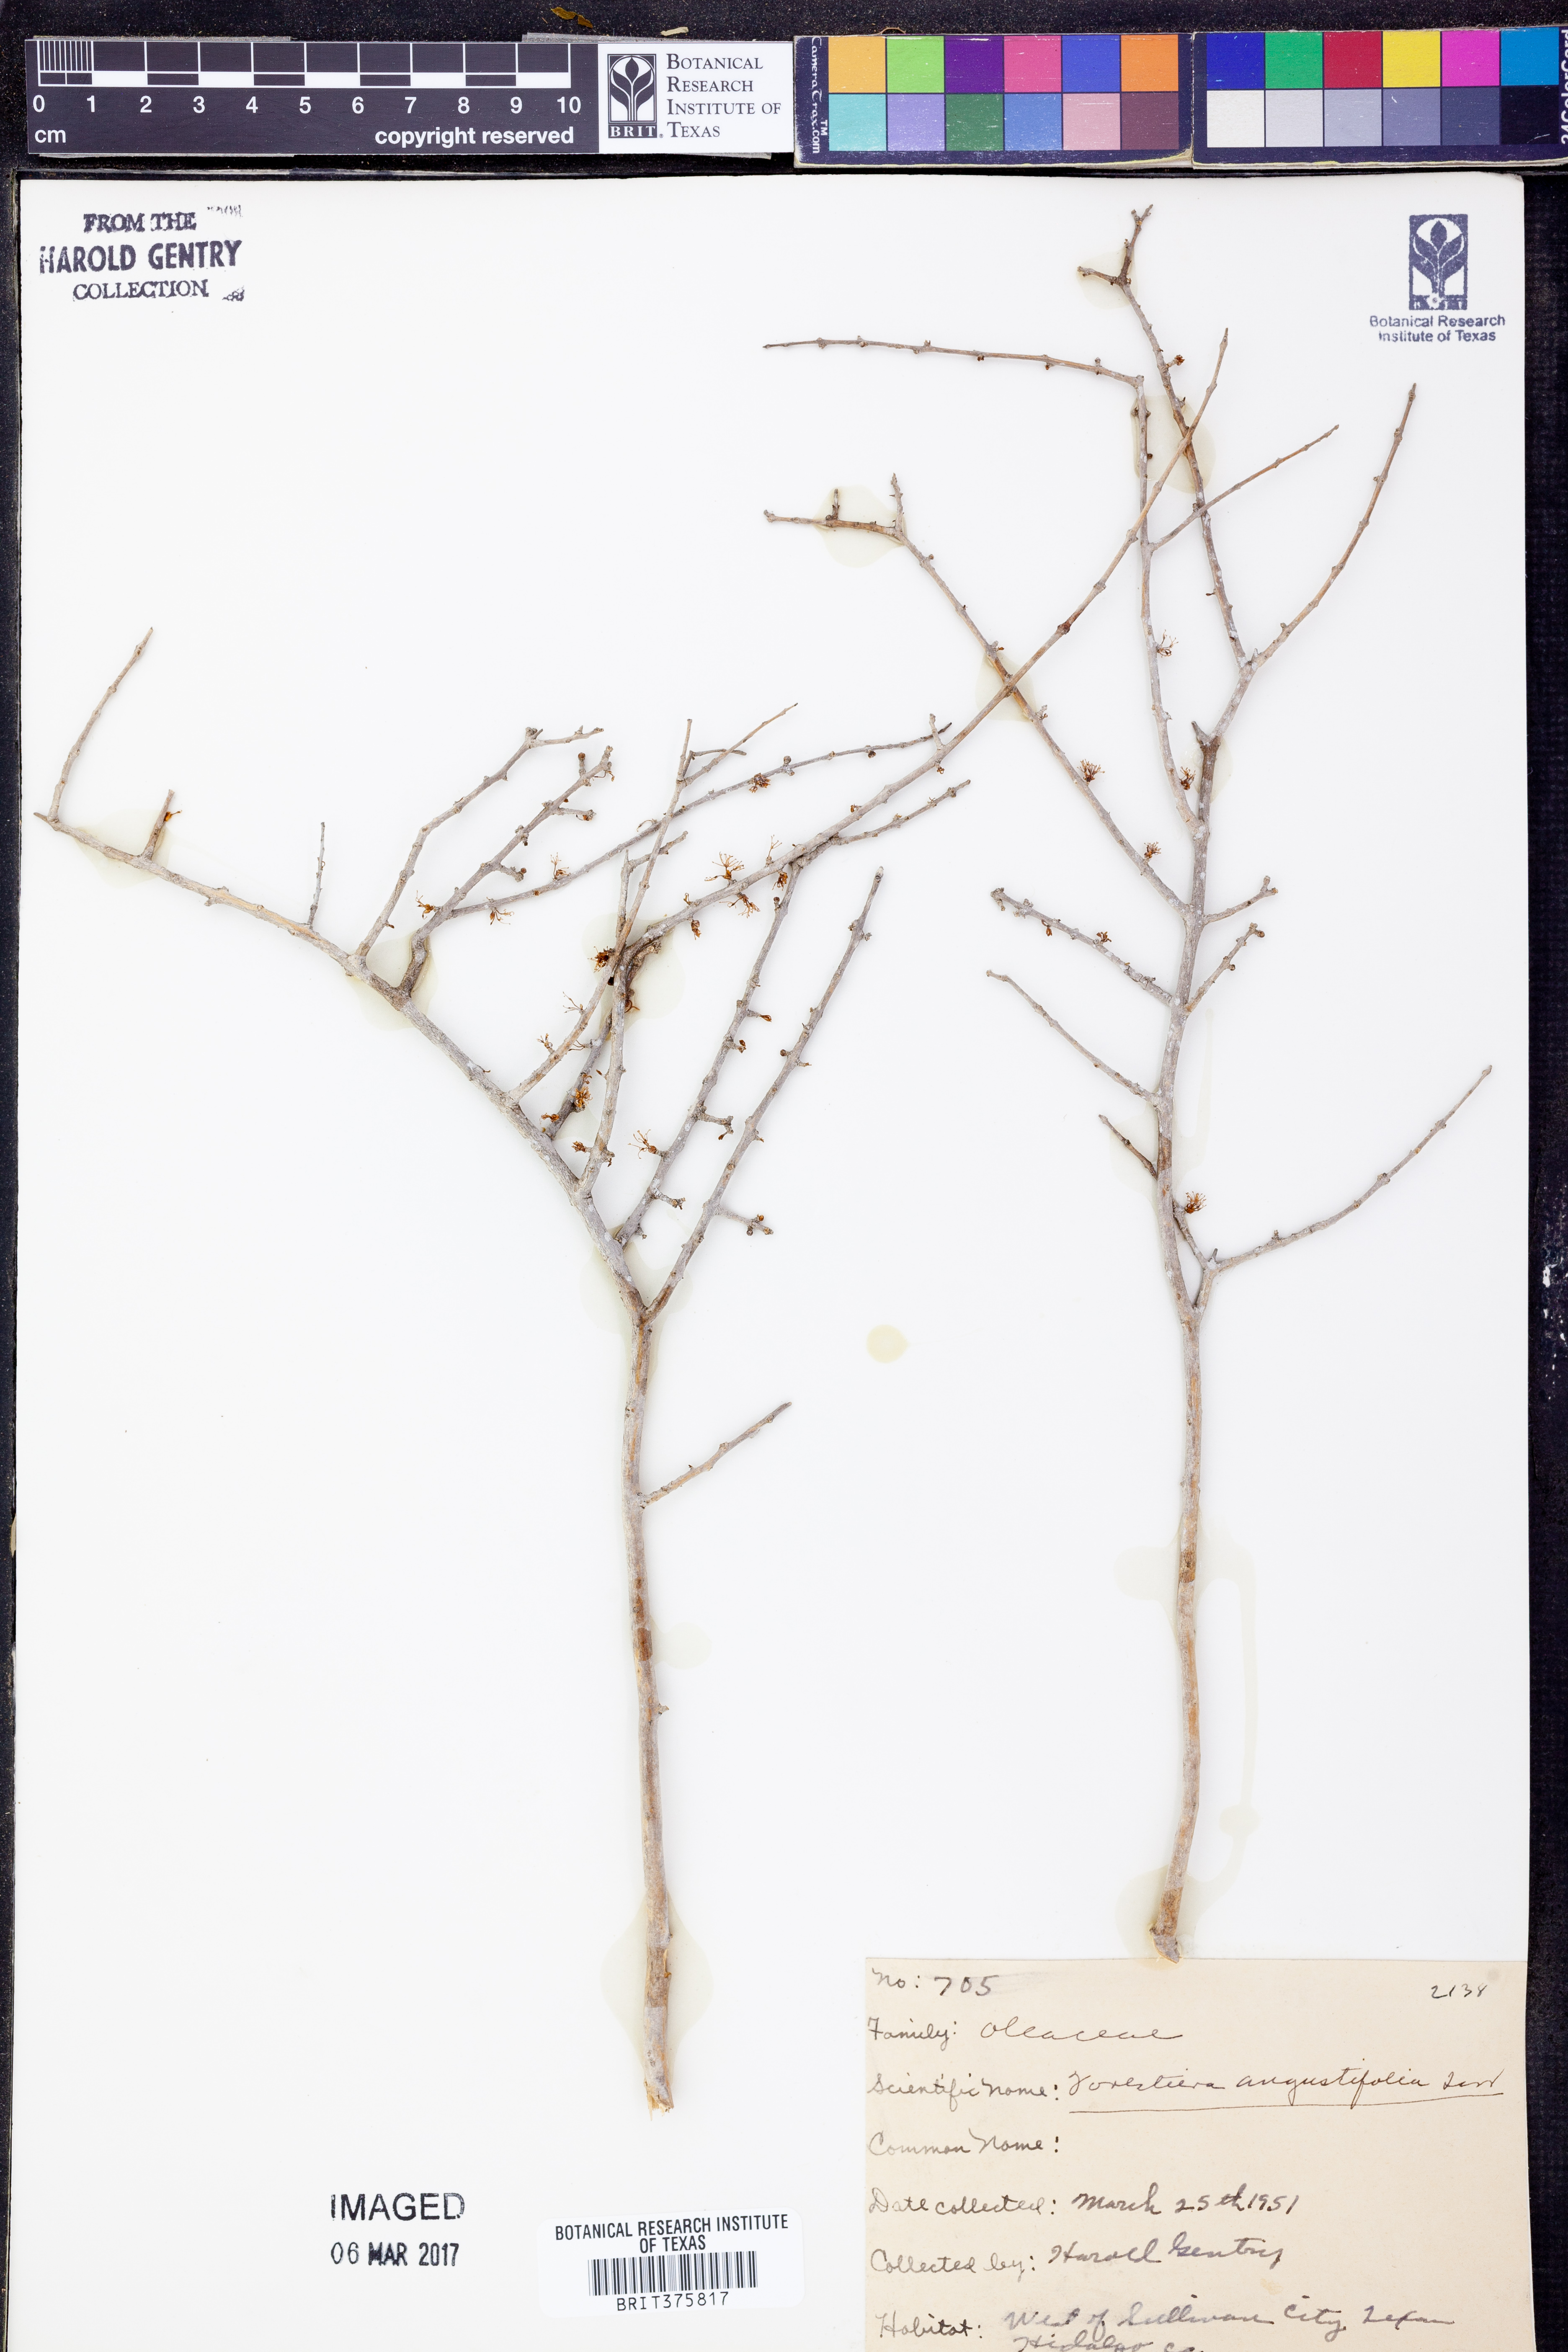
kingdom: Plantae
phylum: Tracheophyta
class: Magnoliopsida
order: Lamiales
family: Oleaceae
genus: Forestiera
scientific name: Forestiera angustifolia
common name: Elbowbush
